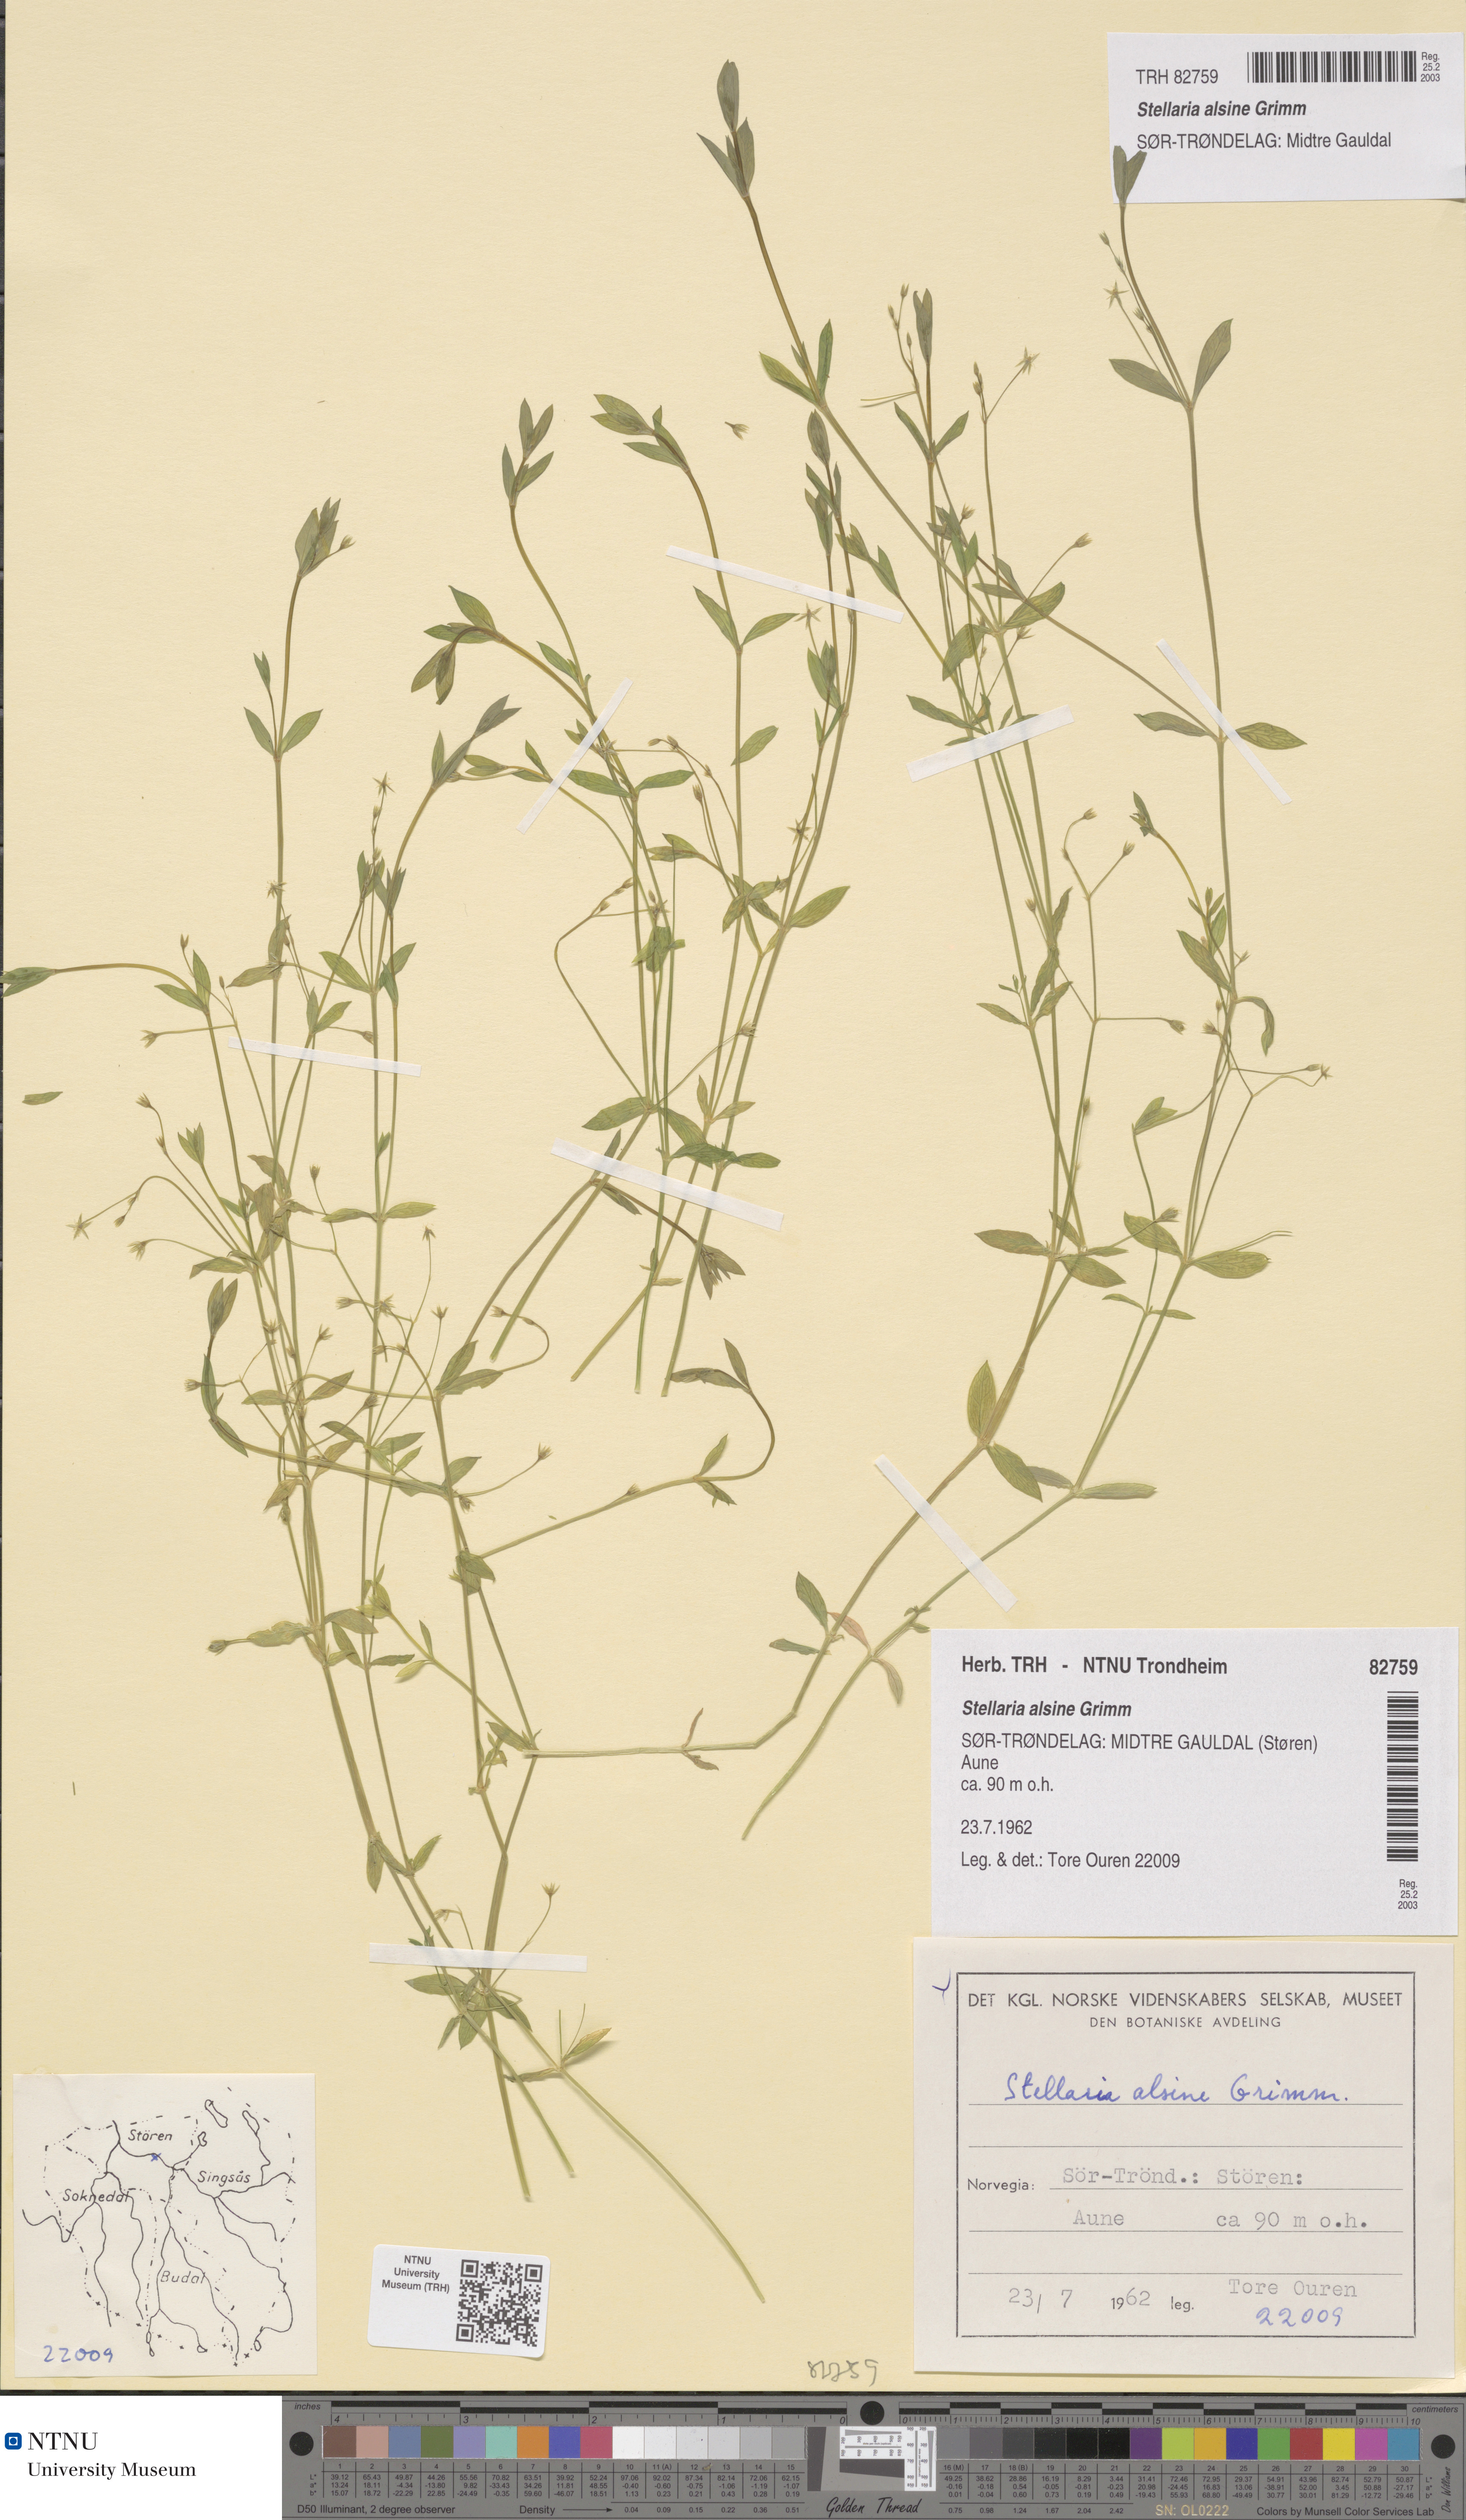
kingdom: Plantae
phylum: Tracheophyta
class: Magnoliopsida
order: Caryophyllales
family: Caryophyllaceae
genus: Stellaria
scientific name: Stellaria alsine
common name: Bog stitchwort
